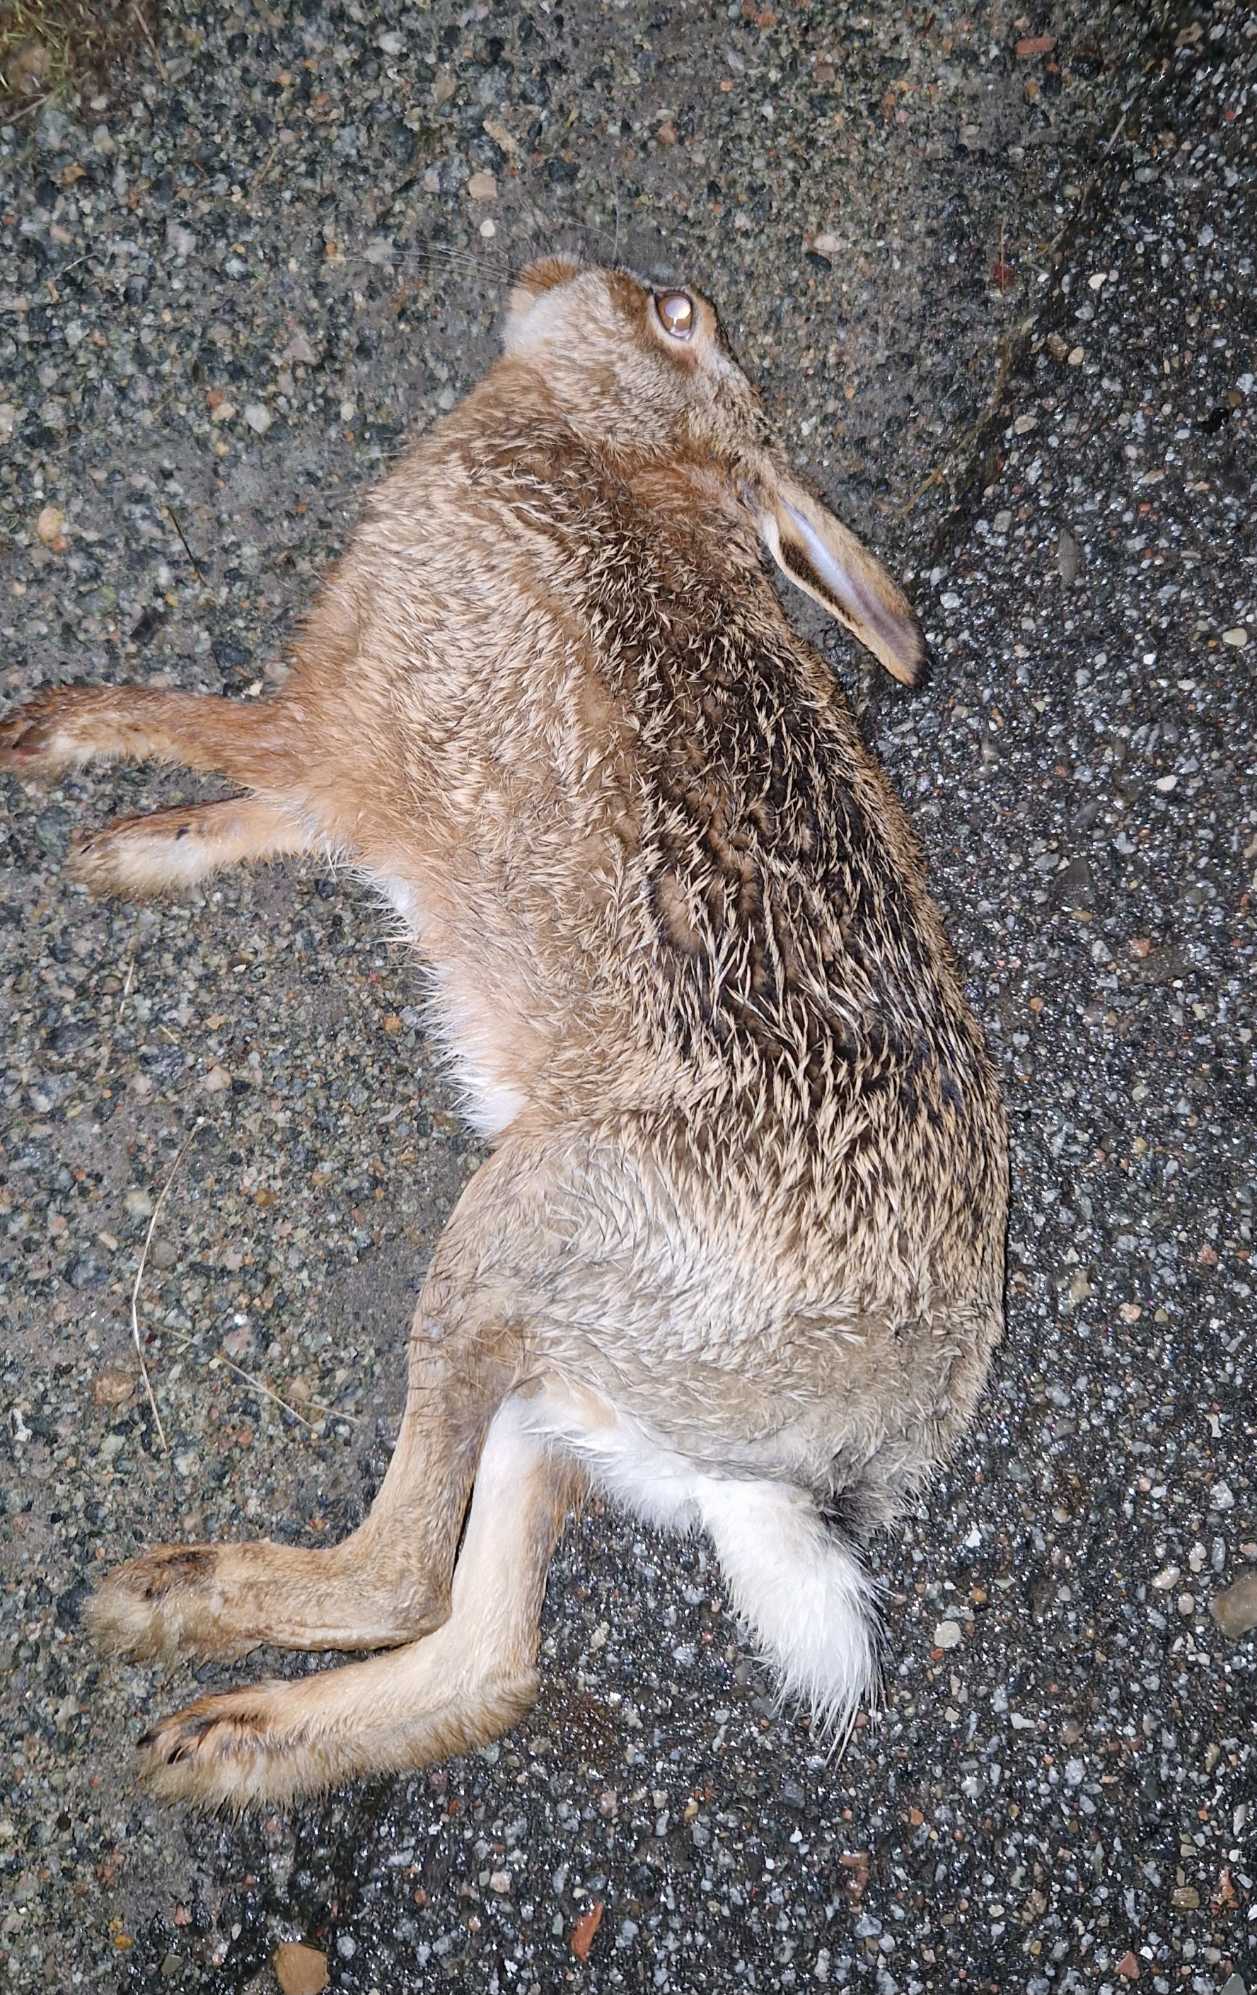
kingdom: Animalia
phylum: Chordata
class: Mammalia
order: Lagomorpha
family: Leporidae
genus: Lepus
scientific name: Lepus europaeus
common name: Hare
